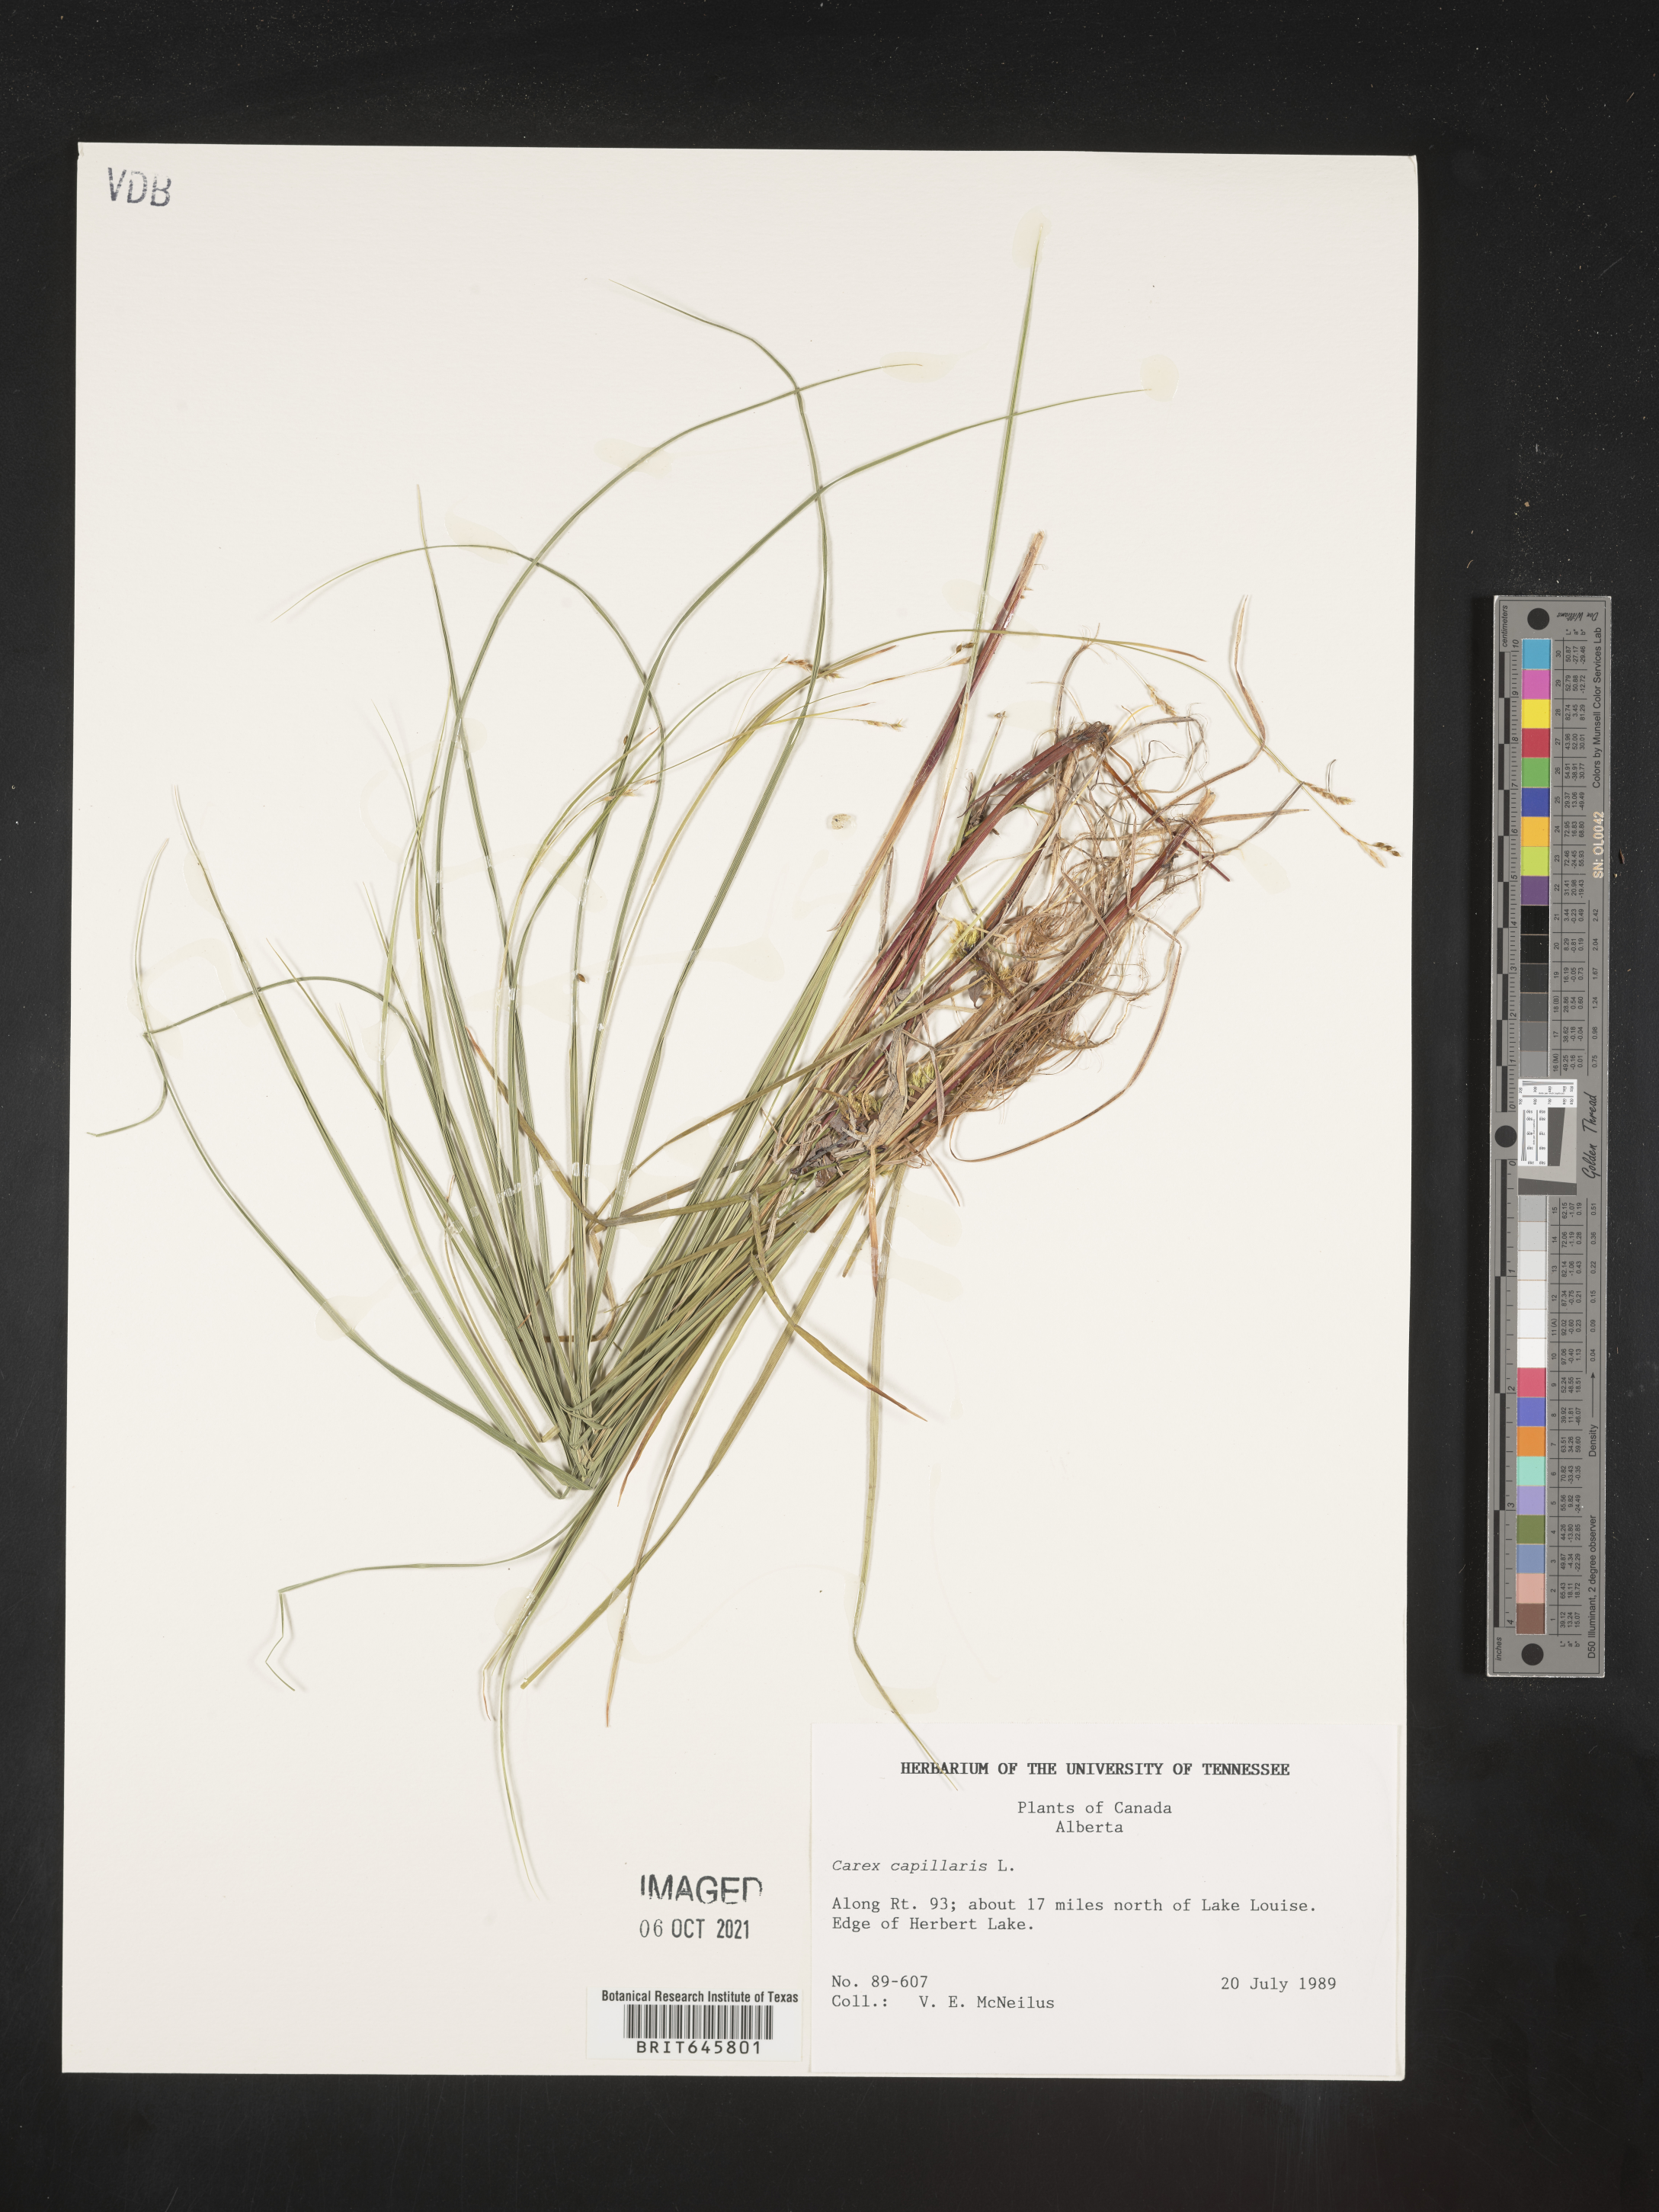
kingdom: Plantae
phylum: Tracheophyta
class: Liliopsida
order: Poales
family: Cyperaceae
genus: Carex
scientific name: Carex capillaris
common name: Hair sedge
